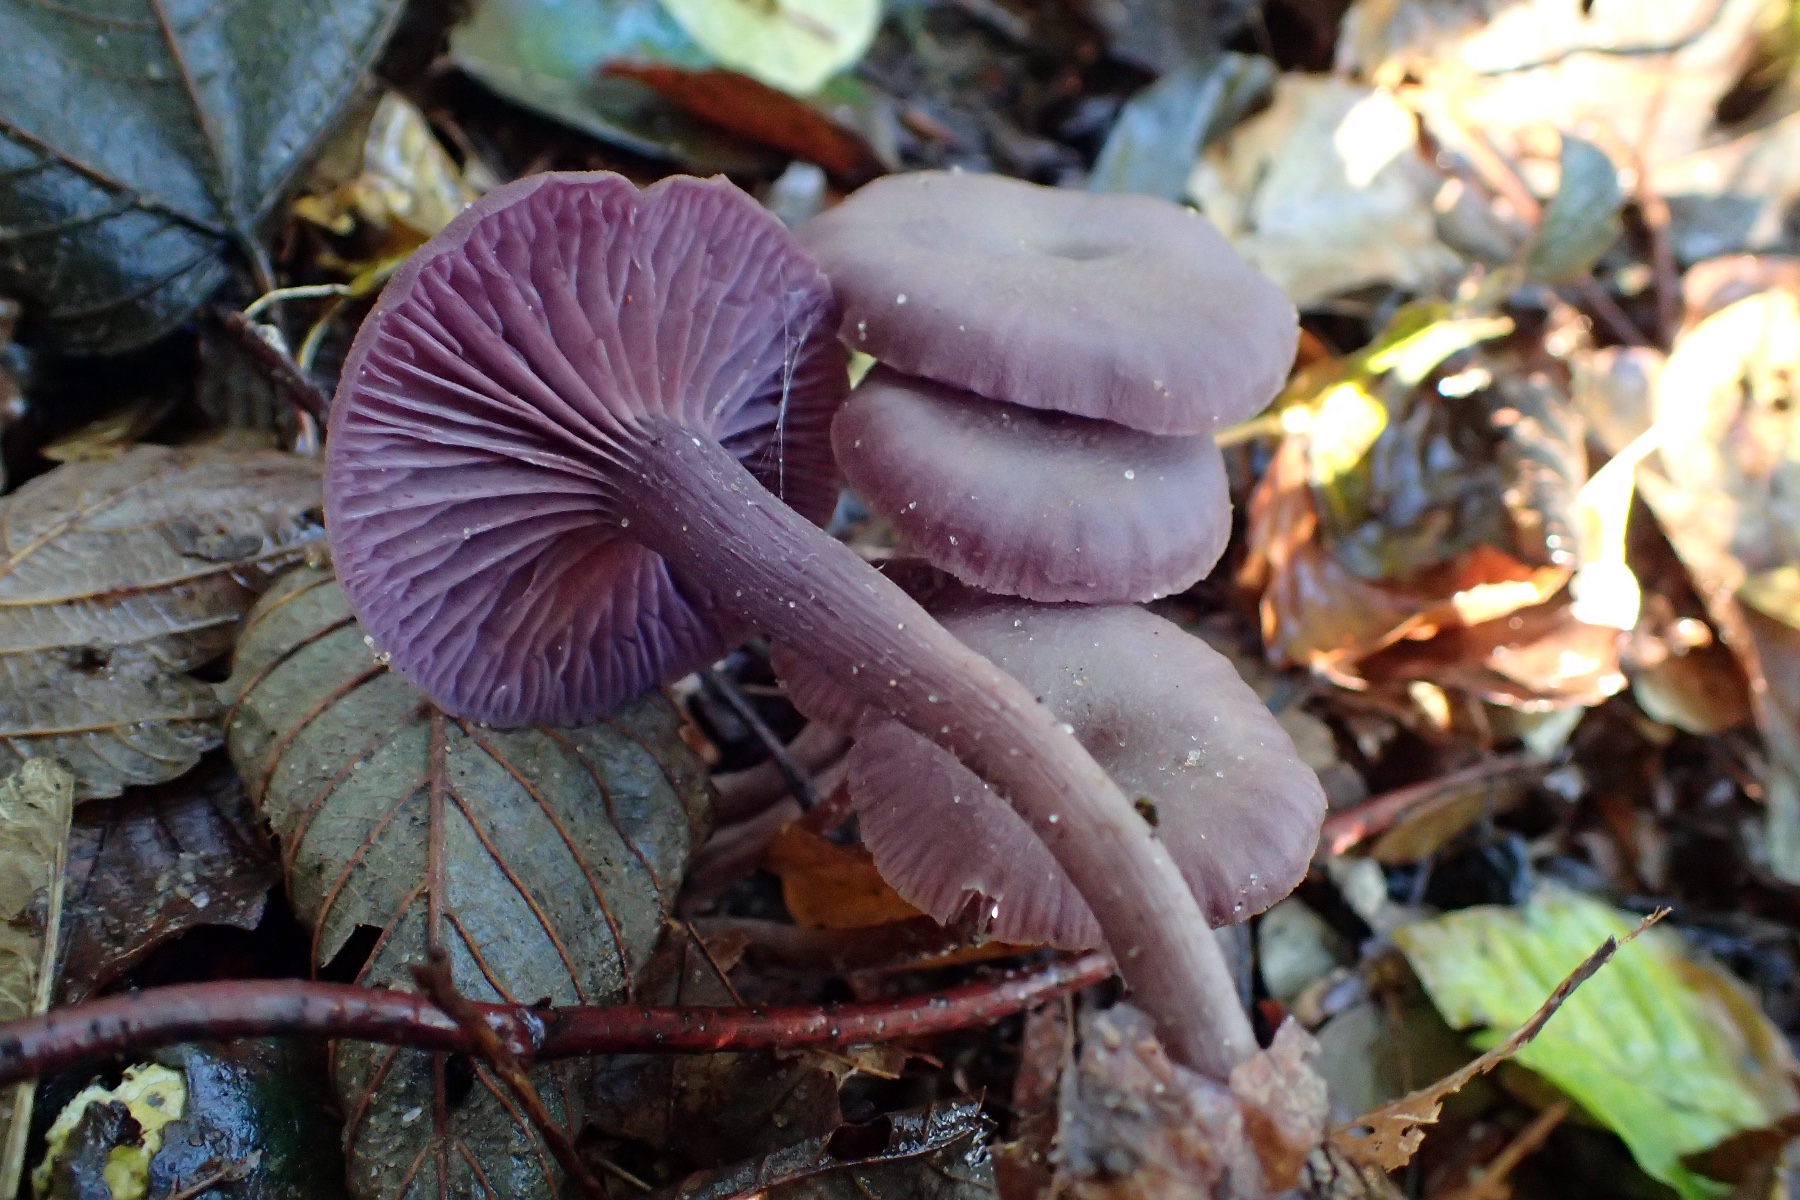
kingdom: Fungi
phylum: Basidiomycota
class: Agaricomycetes
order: Agaricales
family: Hydnangiaceae
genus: Laccaria
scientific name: Laccaria amethystina
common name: violet ametysthat
